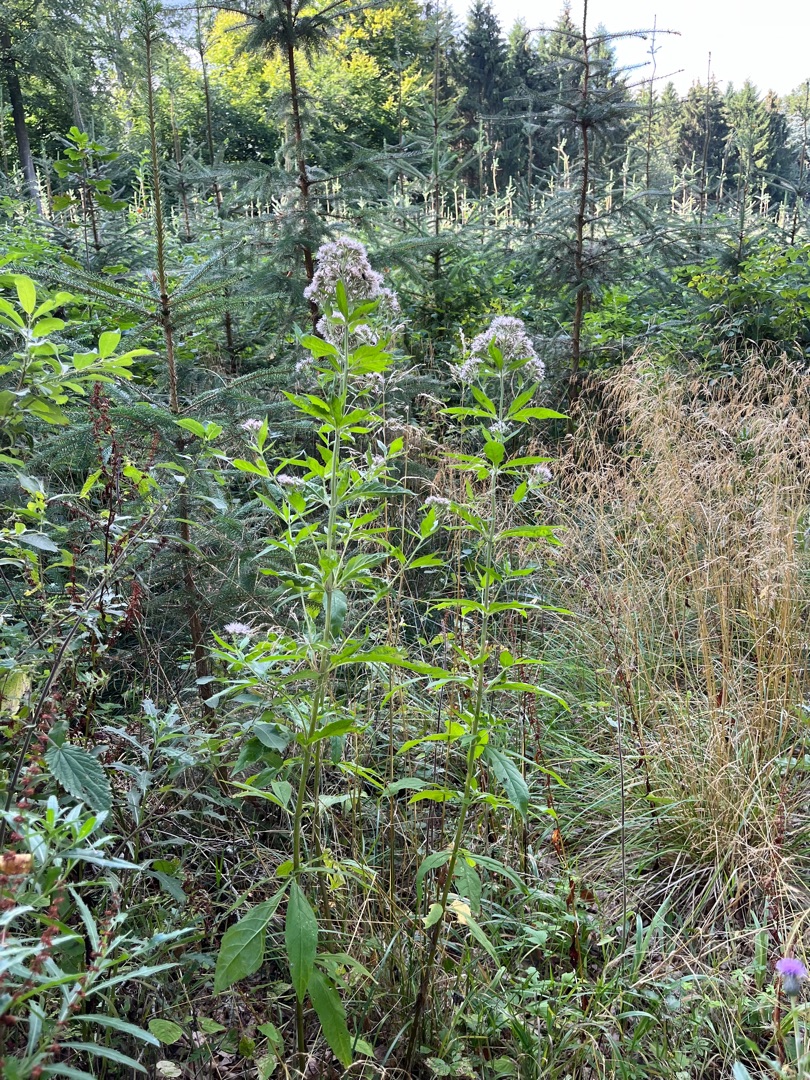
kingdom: Plantae
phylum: Tracheophyta
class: Magnoliopsida
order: Asterales
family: Asteraceae
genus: Eupatorium
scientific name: Eupatorium cannabinum
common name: Hjortetrøst
